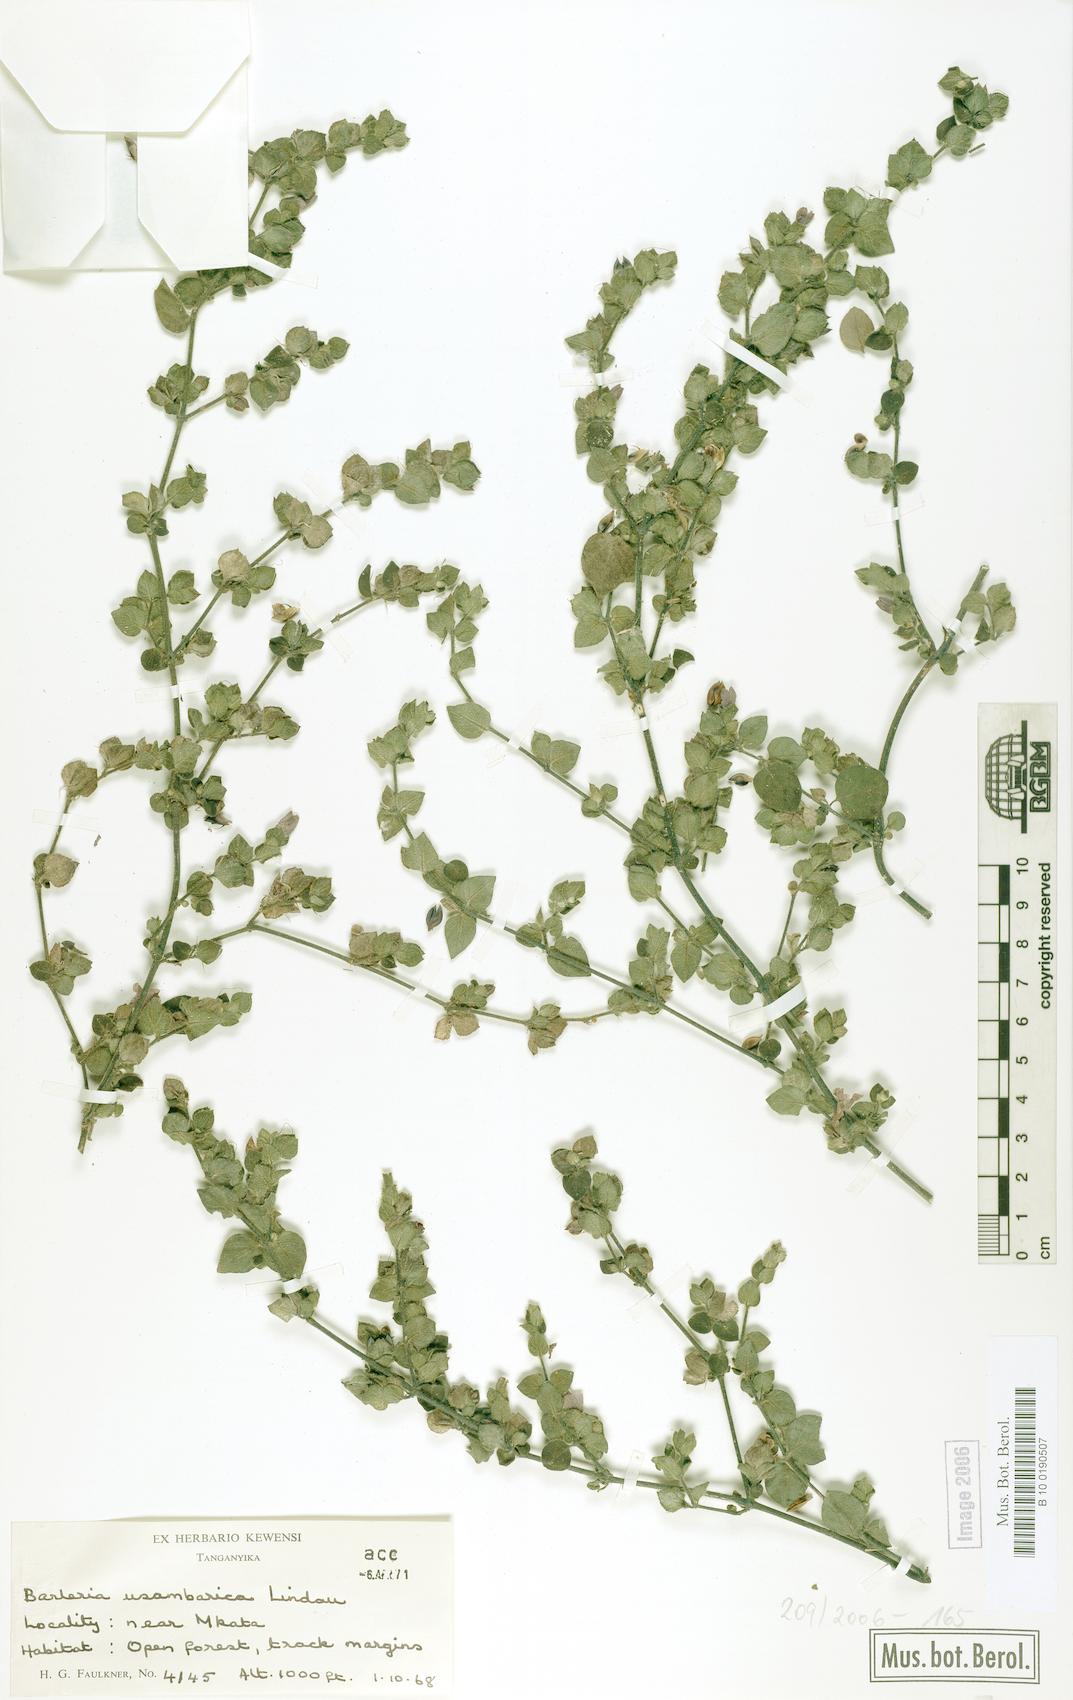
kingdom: Plantae
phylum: Tracheophyta
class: Magnoliopsida
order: Lamiales
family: Acanthaceae
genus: Barleria
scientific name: Barleria usambarica
